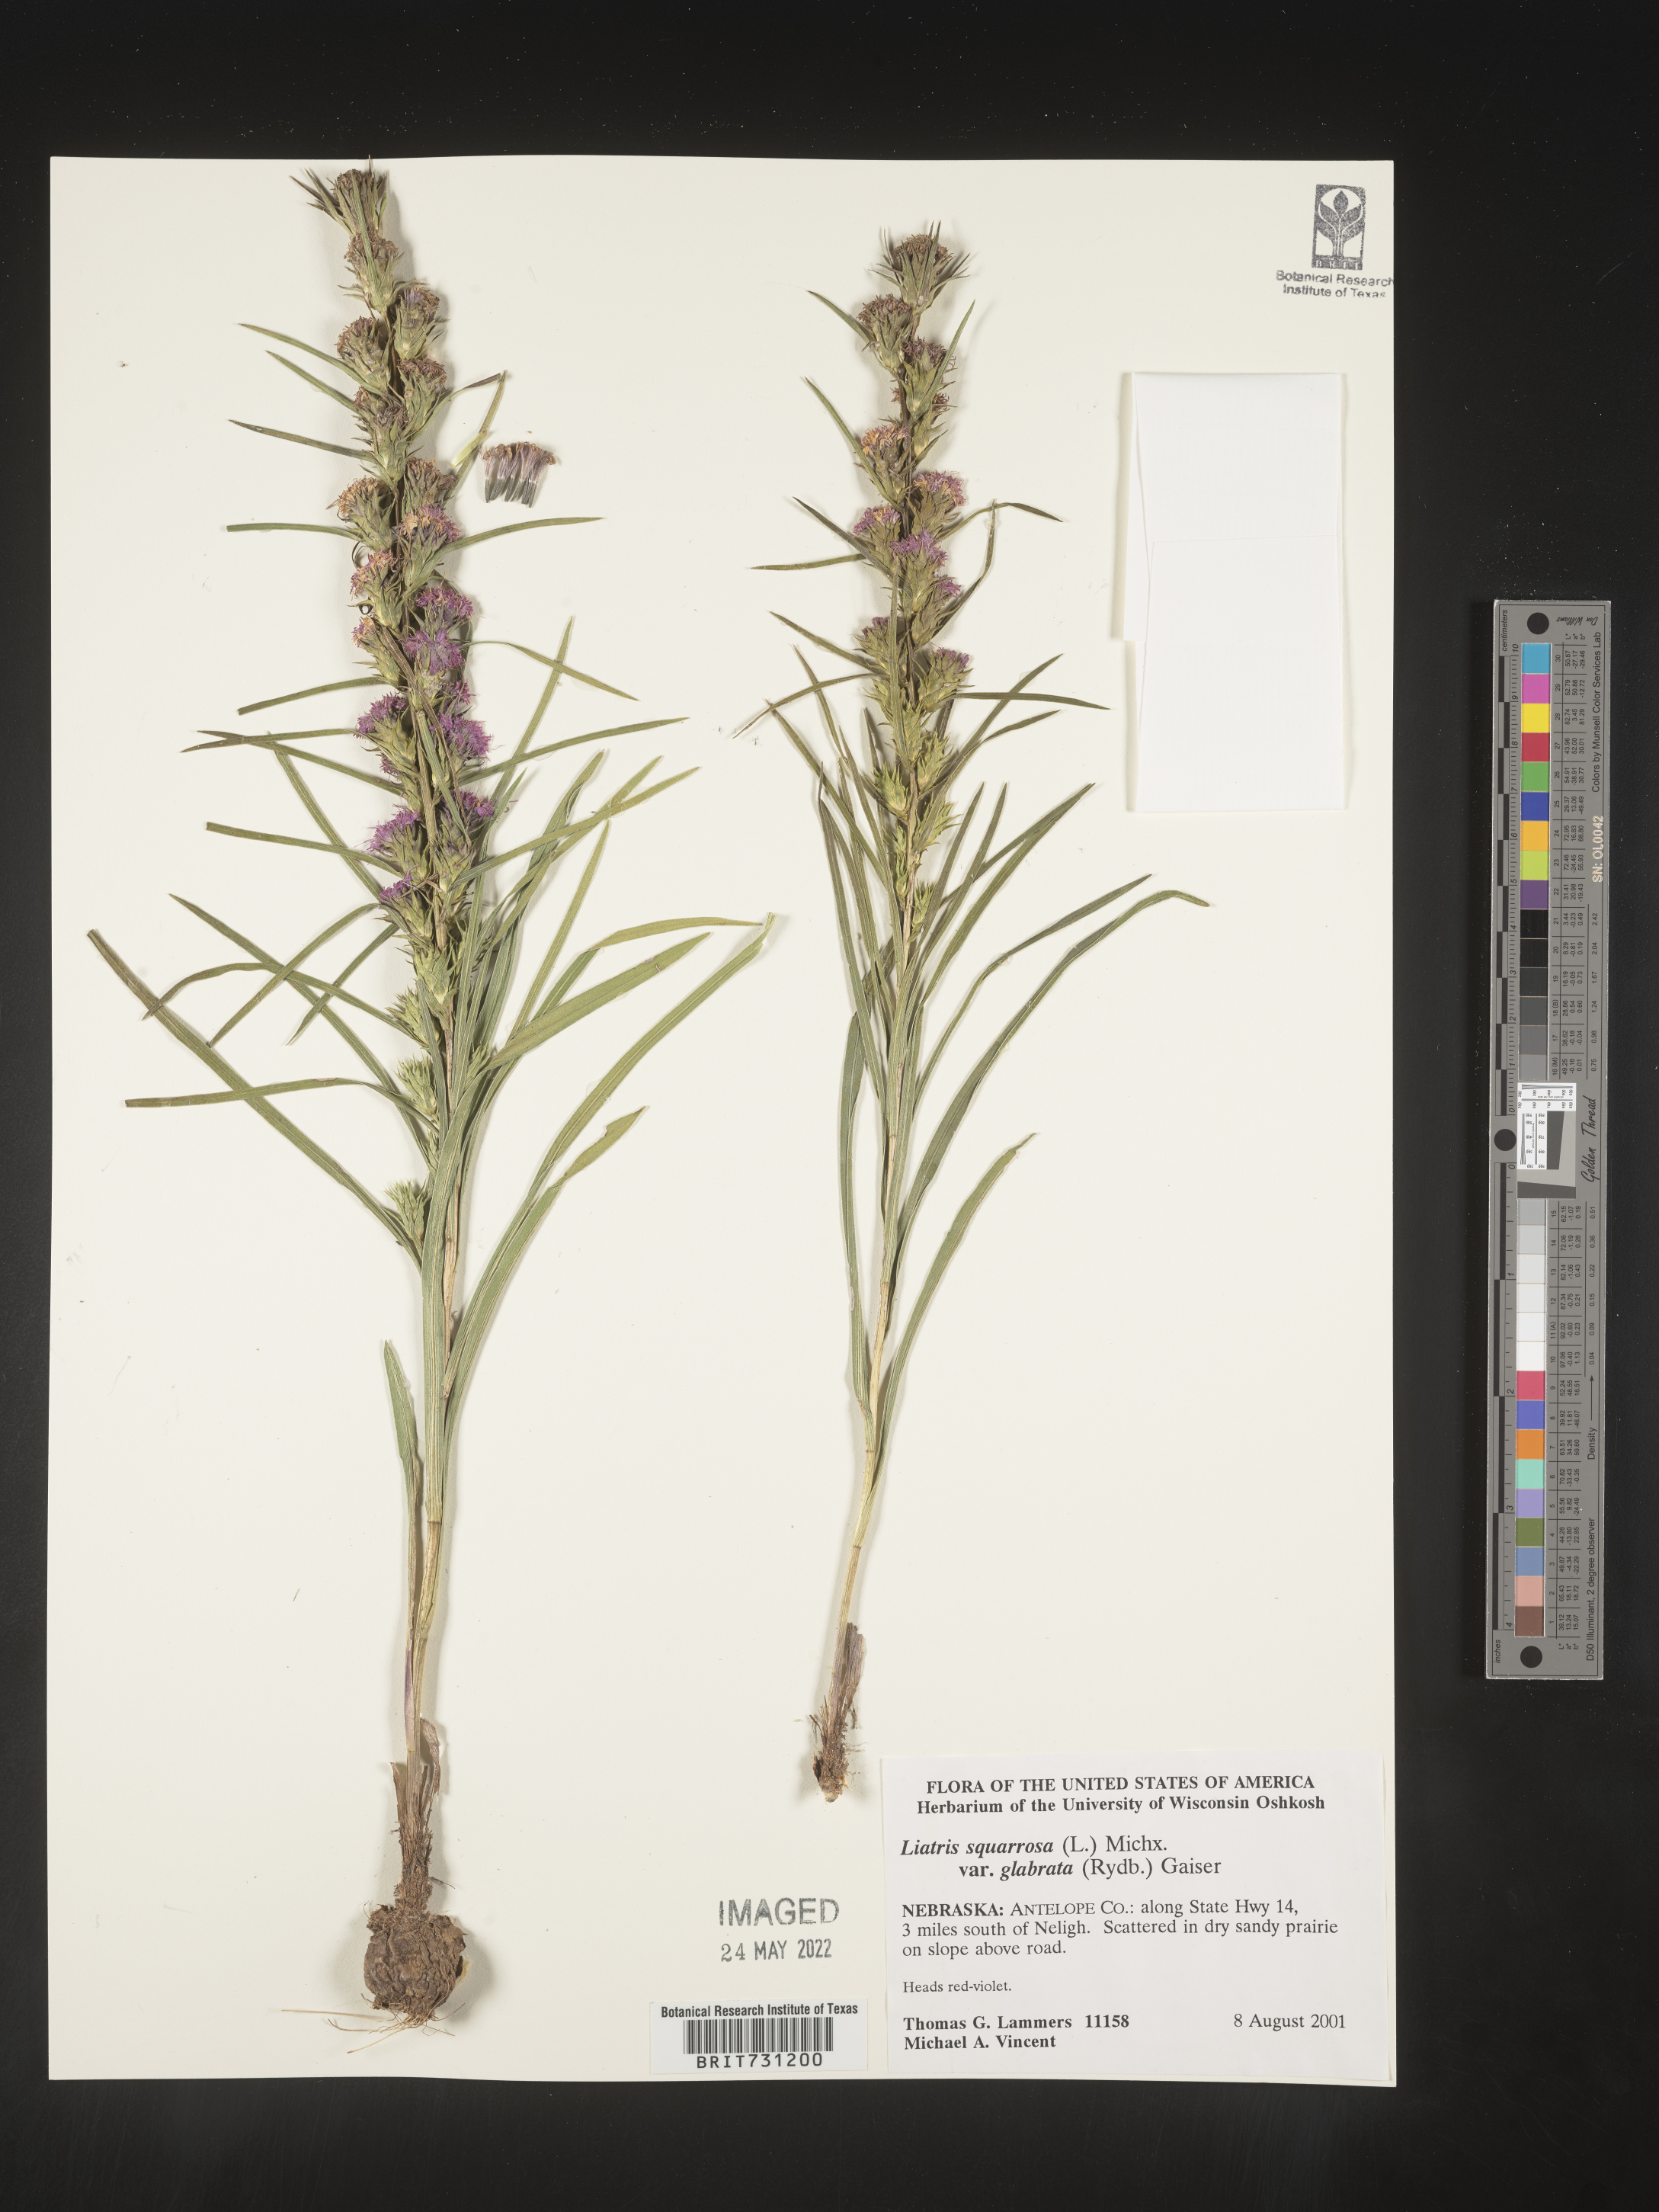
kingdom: Plantae
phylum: Tracheophyta
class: Magnoliopsida
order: Asterales
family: Asteraceae
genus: Liatris
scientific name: Liatris squarrosa
